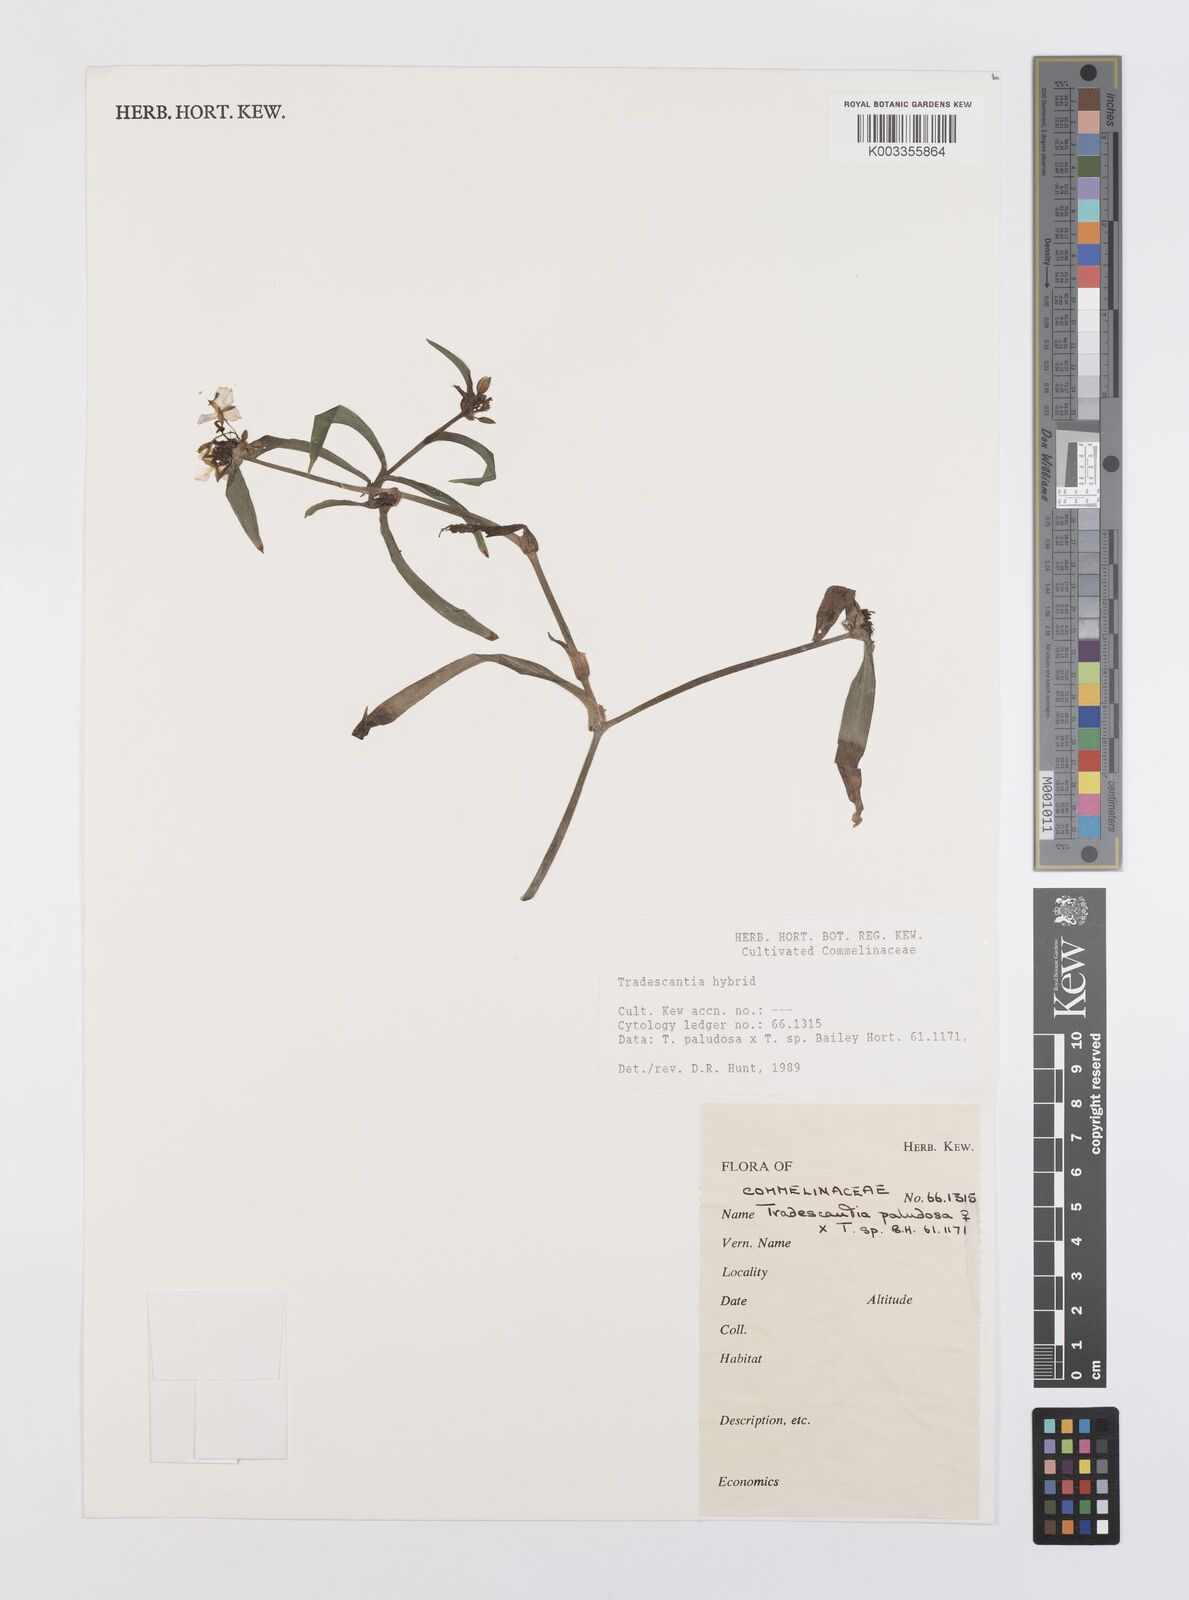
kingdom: Plantae
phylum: Tracheophyta
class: Liliopsida
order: Commelinales
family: Commelinaceae
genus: Tradescantia
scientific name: Tradescantia ohiensis
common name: Ohio spiderwort
